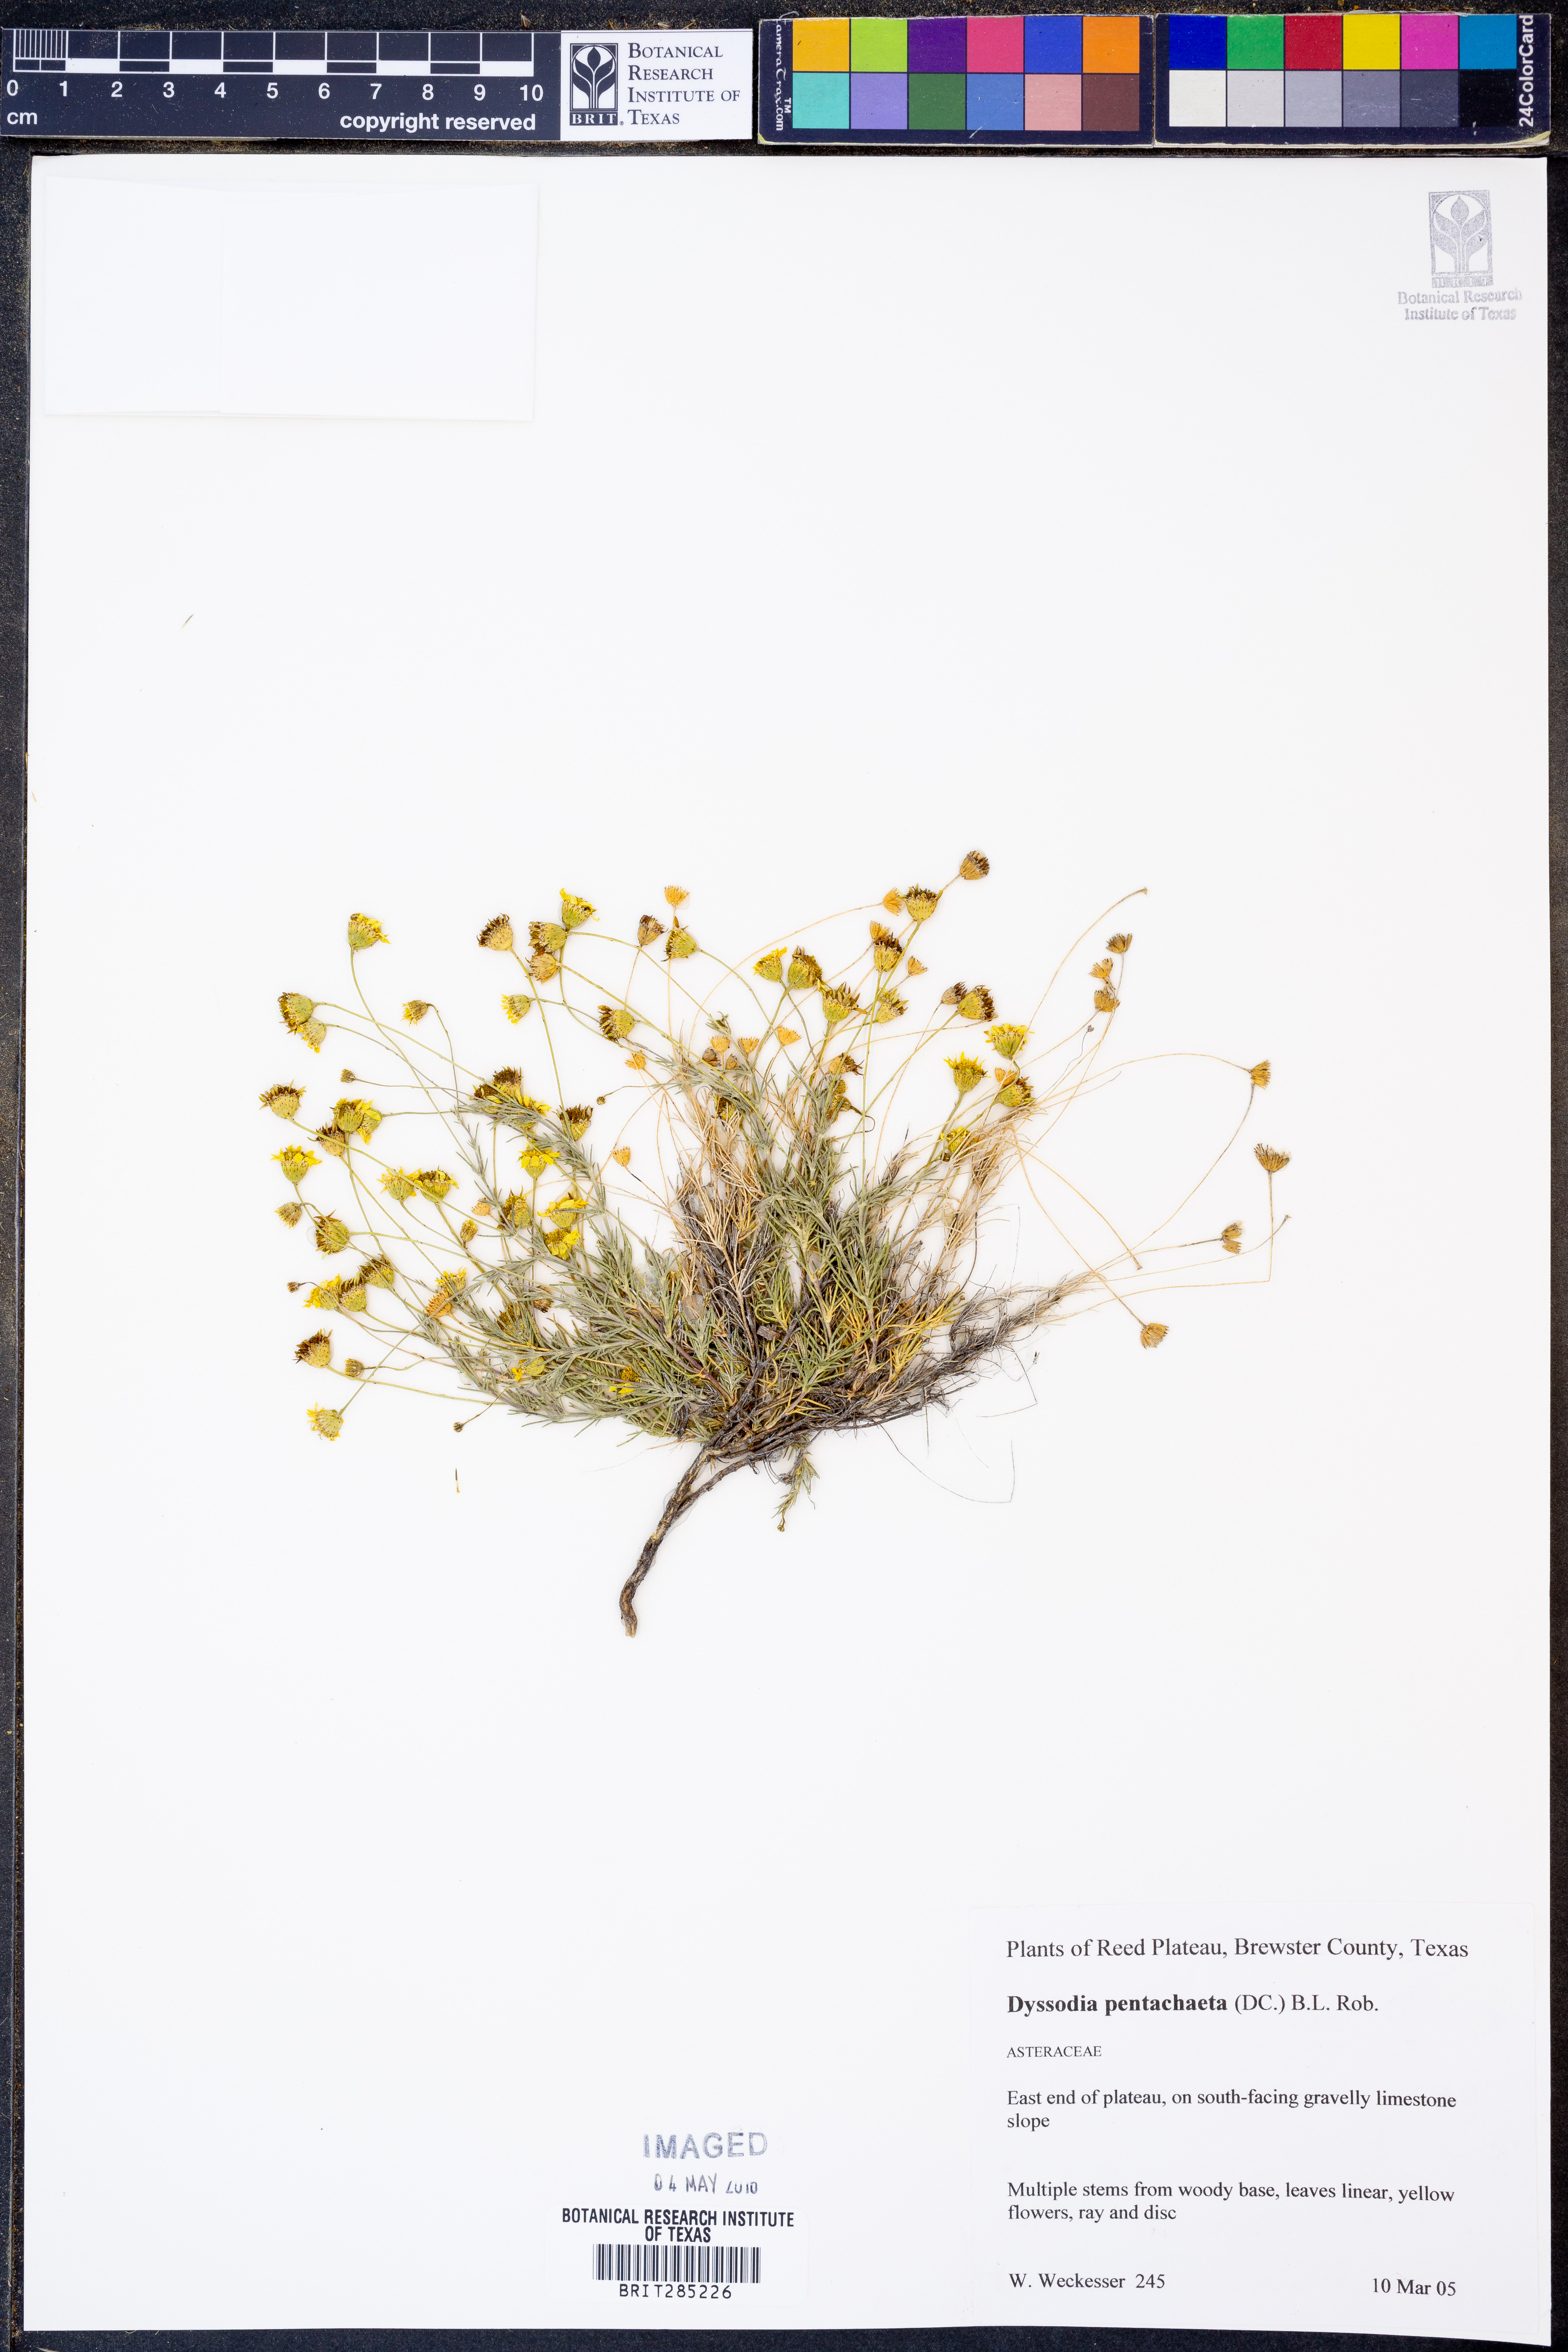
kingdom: Plantae
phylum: Tracheophyta
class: Magnoliopsida
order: Asterales
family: Asteraceae
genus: Thymophylla
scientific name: Thymophylla pentachaeta
